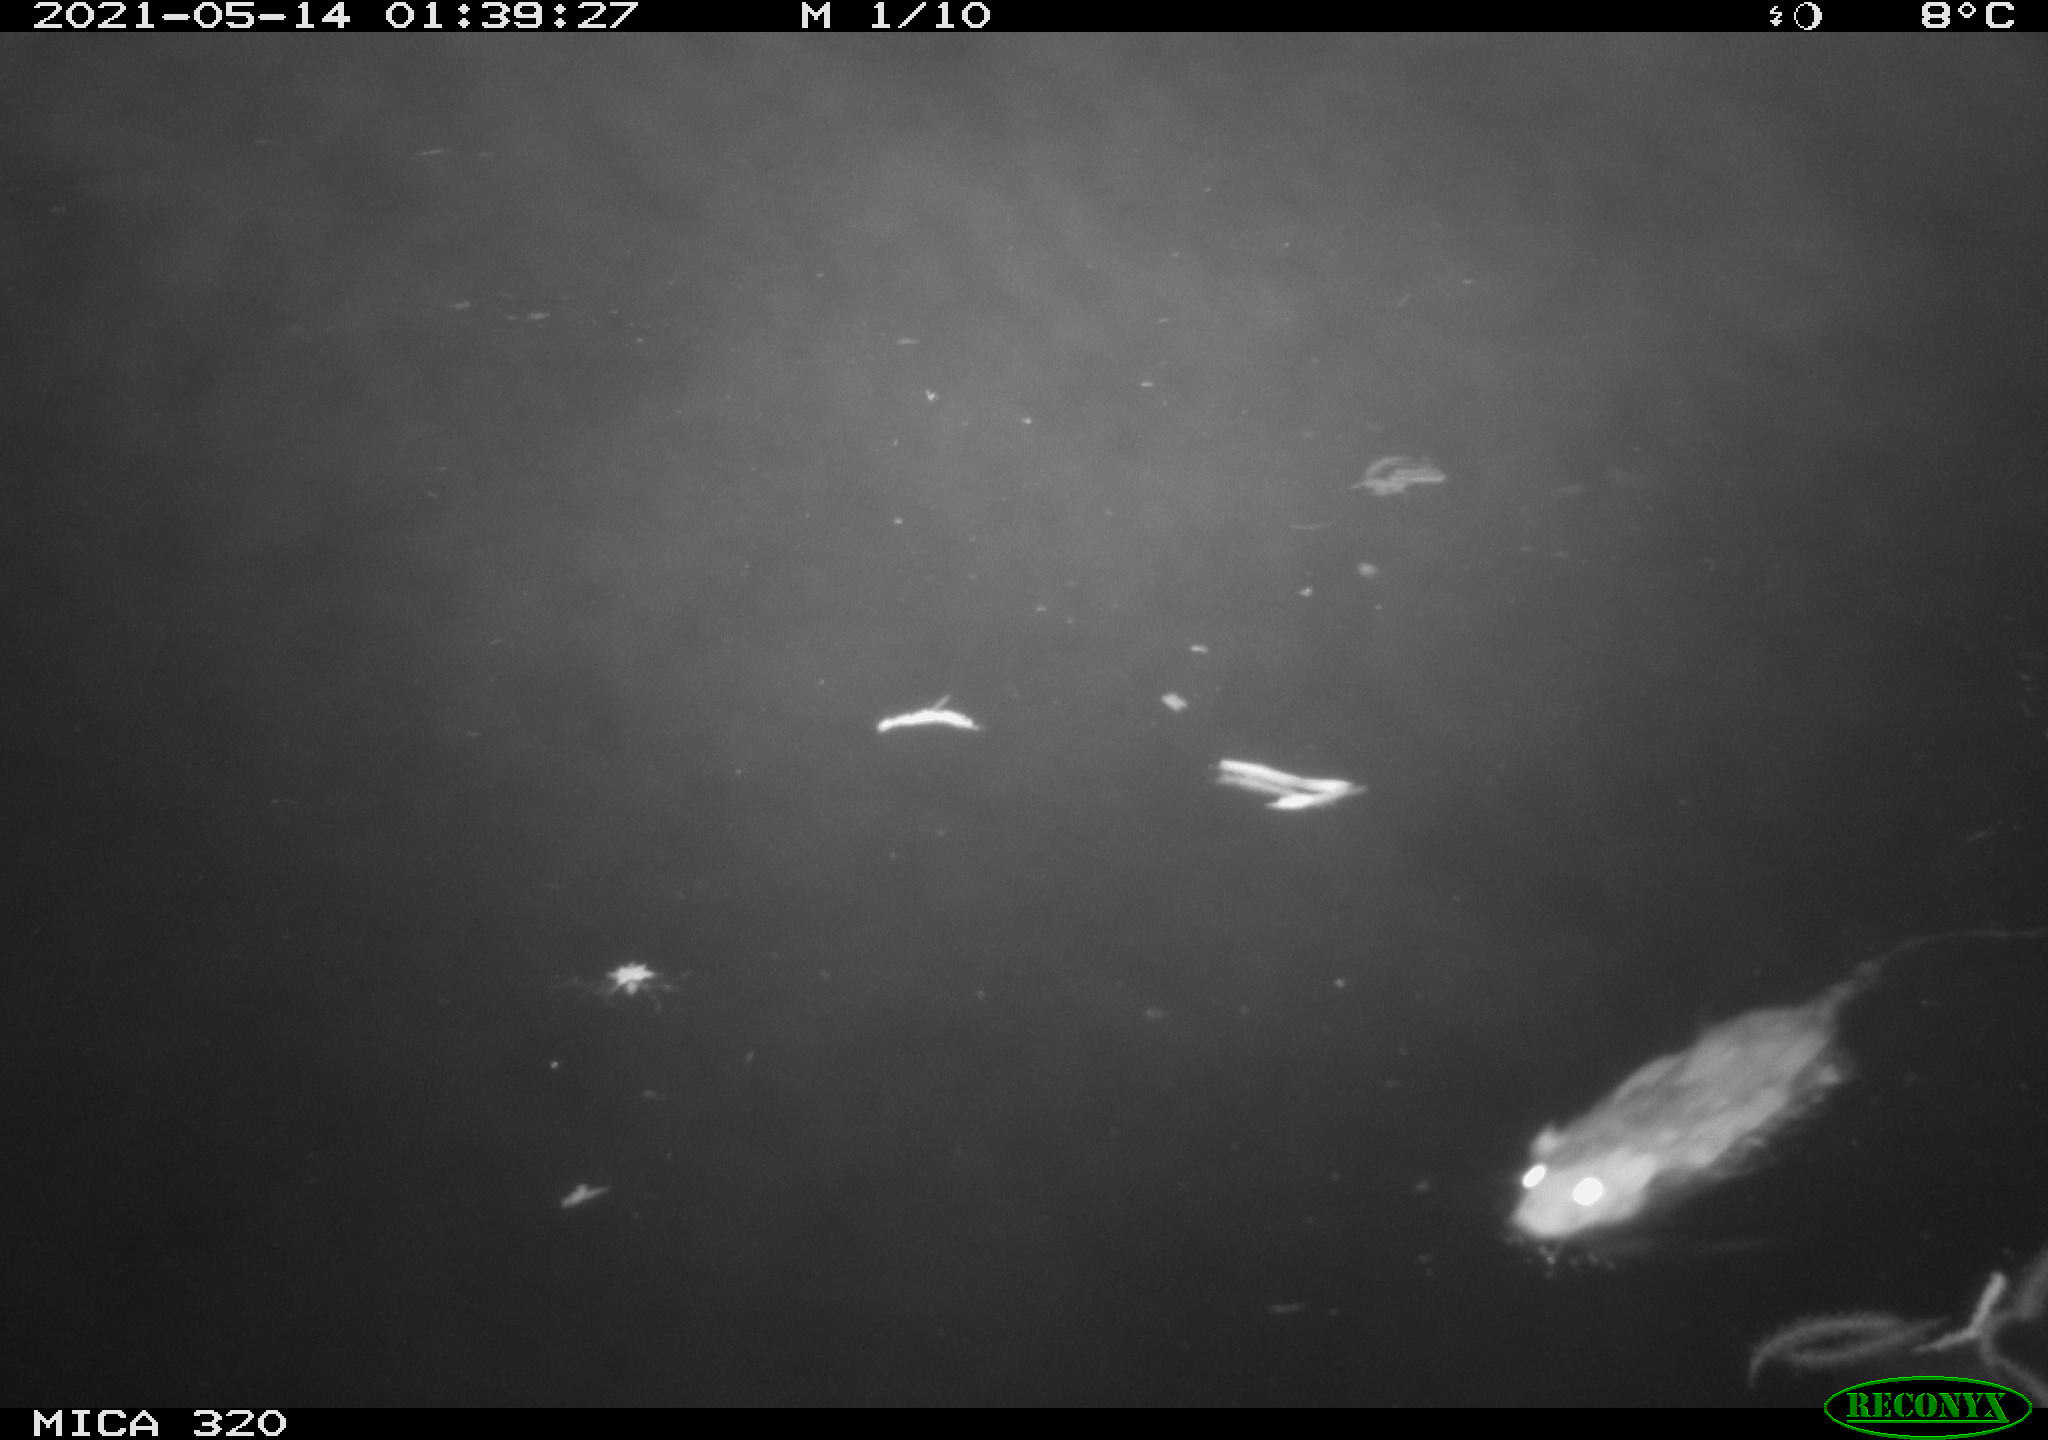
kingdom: Animalia
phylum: Chordata
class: Mammalia
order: Rodentia
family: Muridae
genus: Rattus
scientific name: Rattus norvegicus
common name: Brown rat
